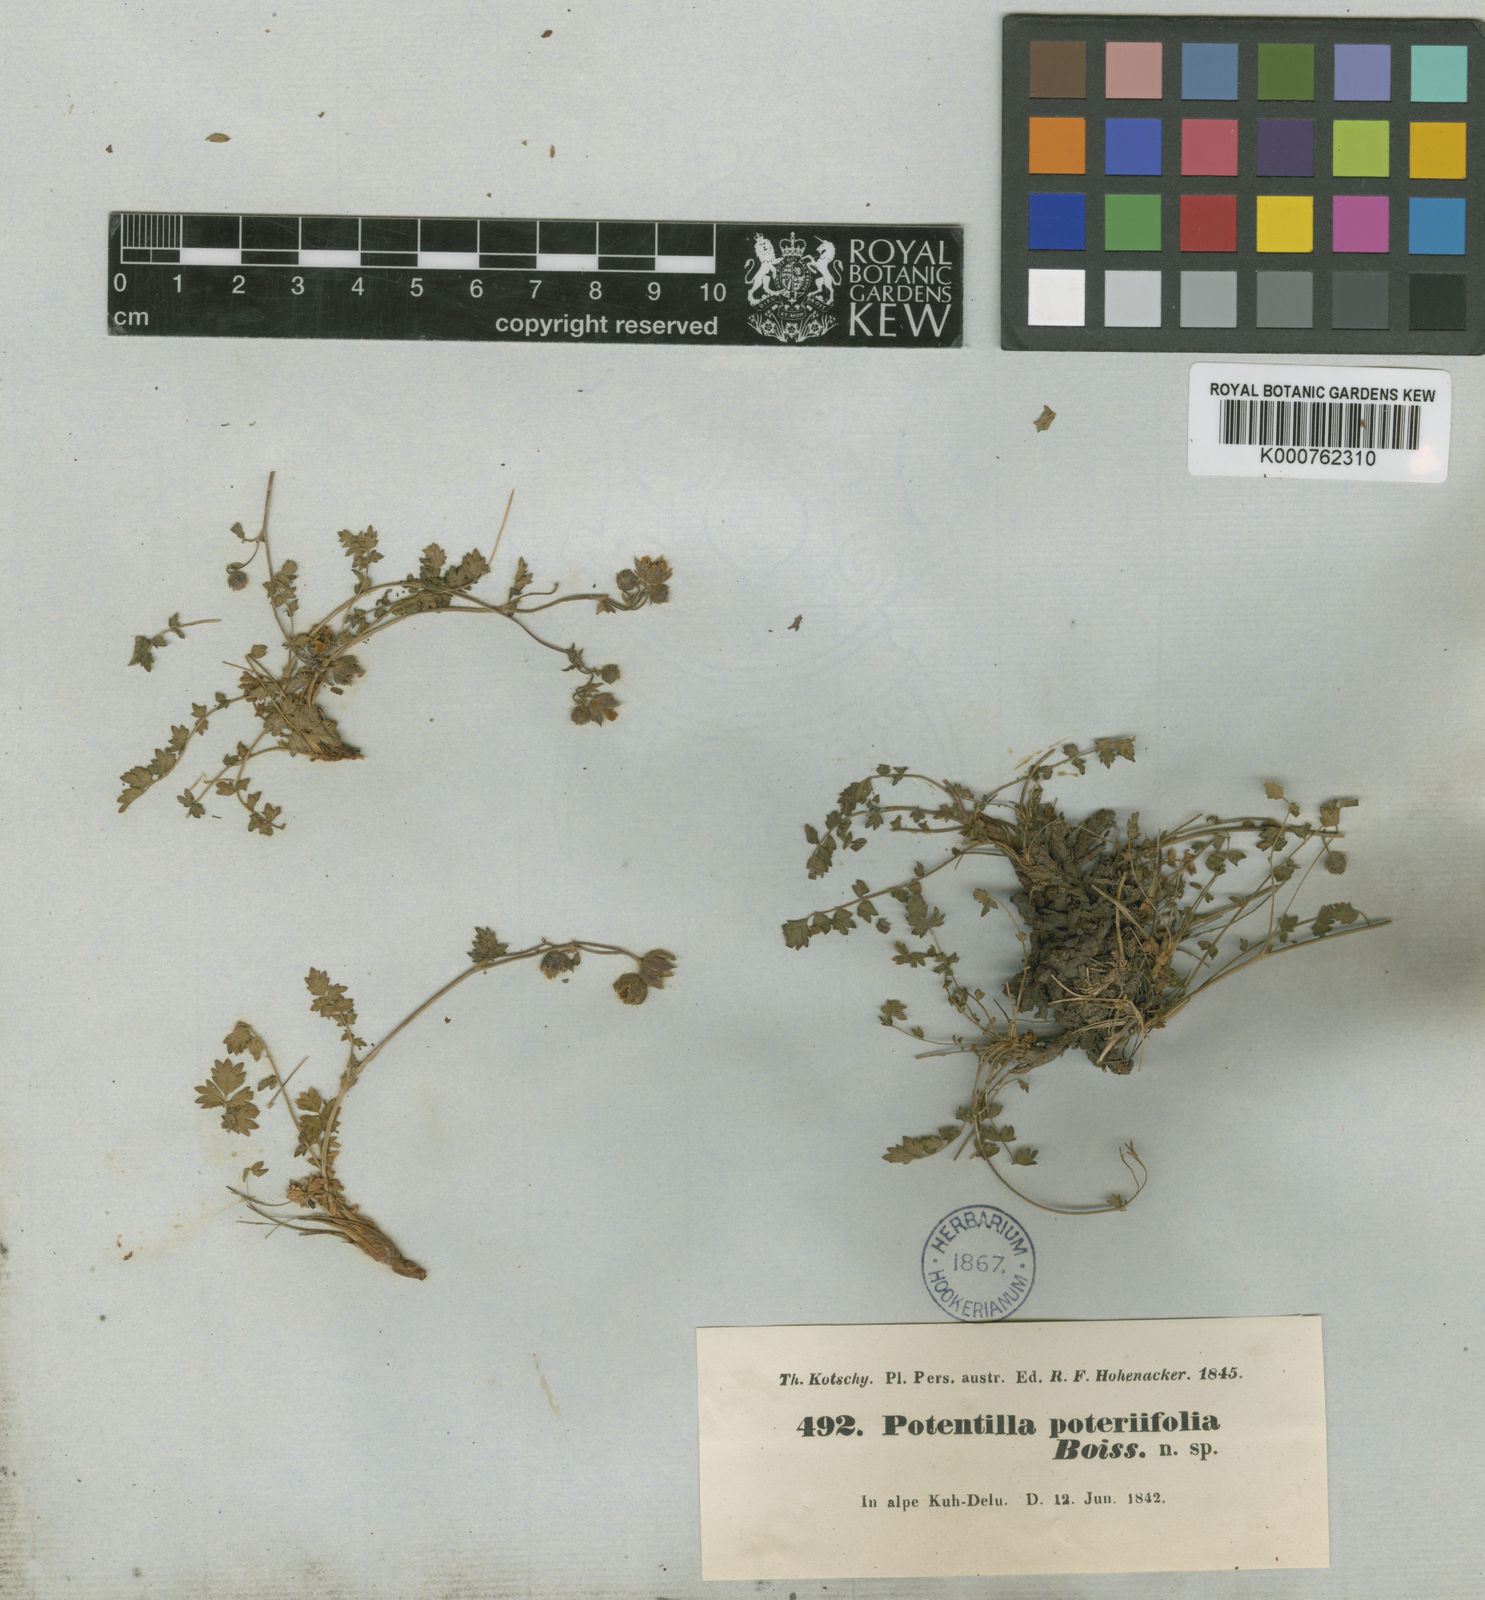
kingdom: Plantae
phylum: Tracheophyta
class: Magnoliopsida
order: Rosales
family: Rosaceae
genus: Drymocallis
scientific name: Drymocallis poteriifolia
